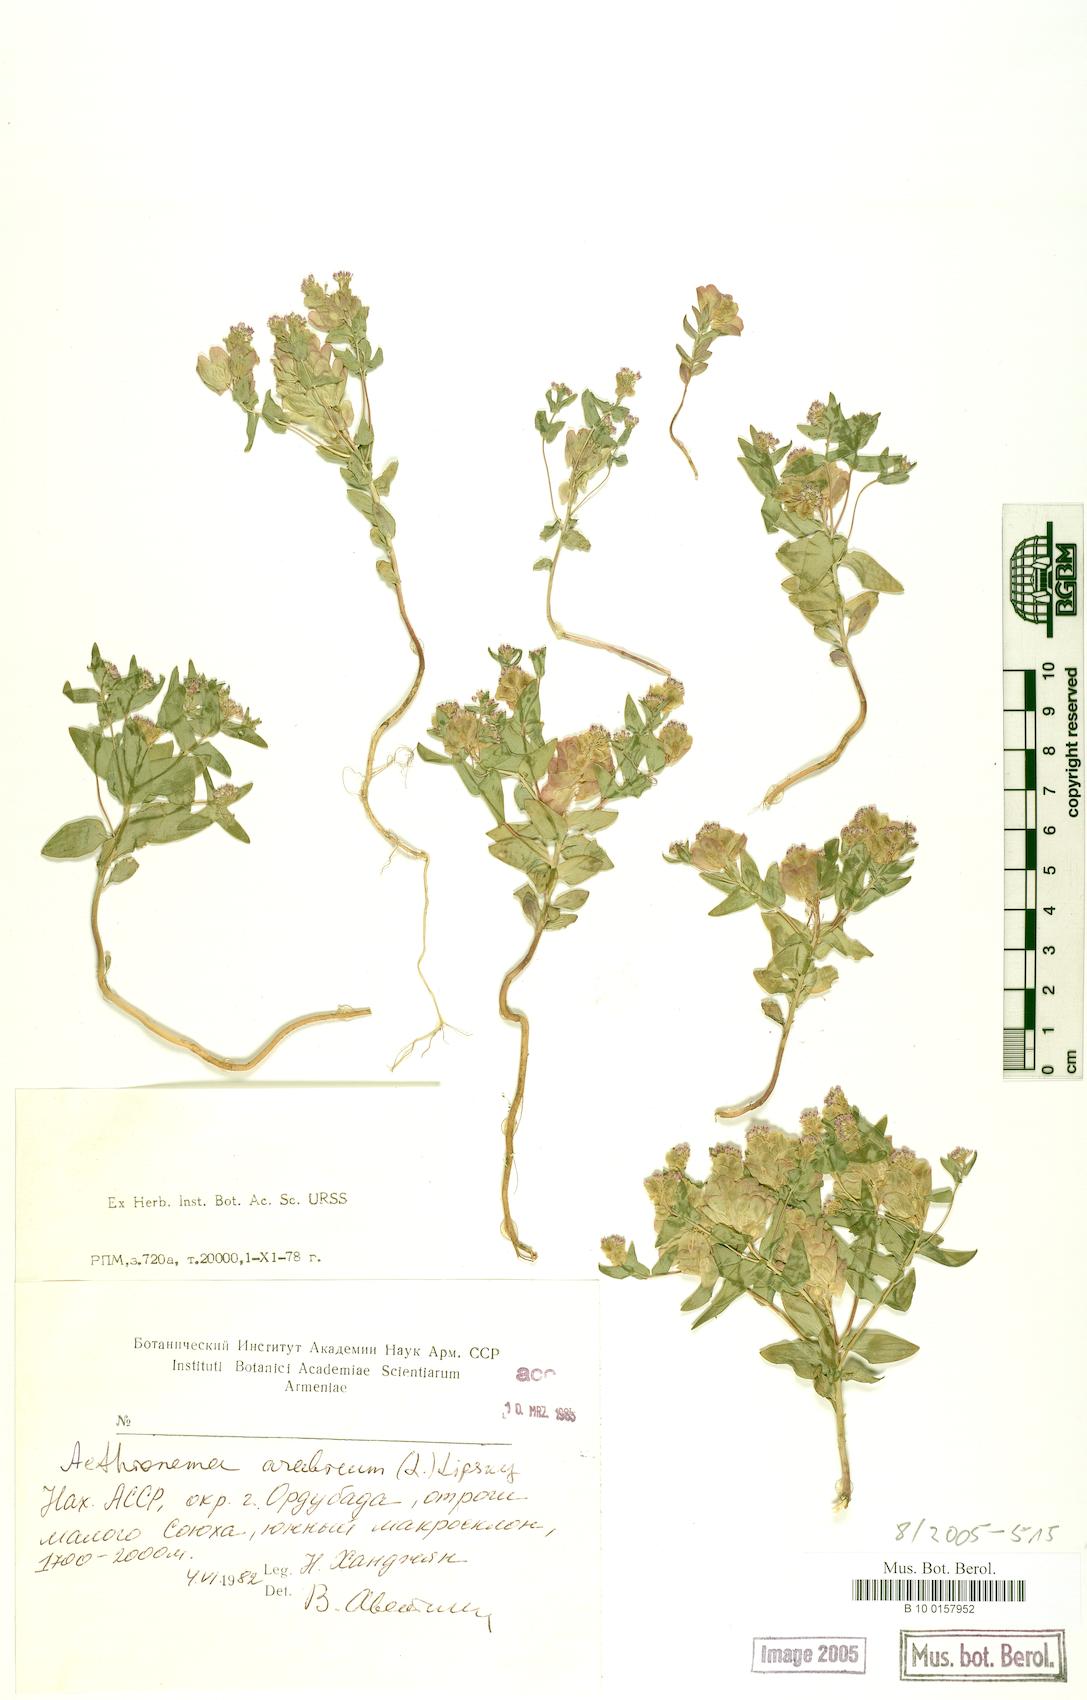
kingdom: Plantae
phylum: Tracheophyta
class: Magnoliopsida
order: Brassicales
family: Brassicaceae
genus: Aethionema
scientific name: Aethionema arabicum
